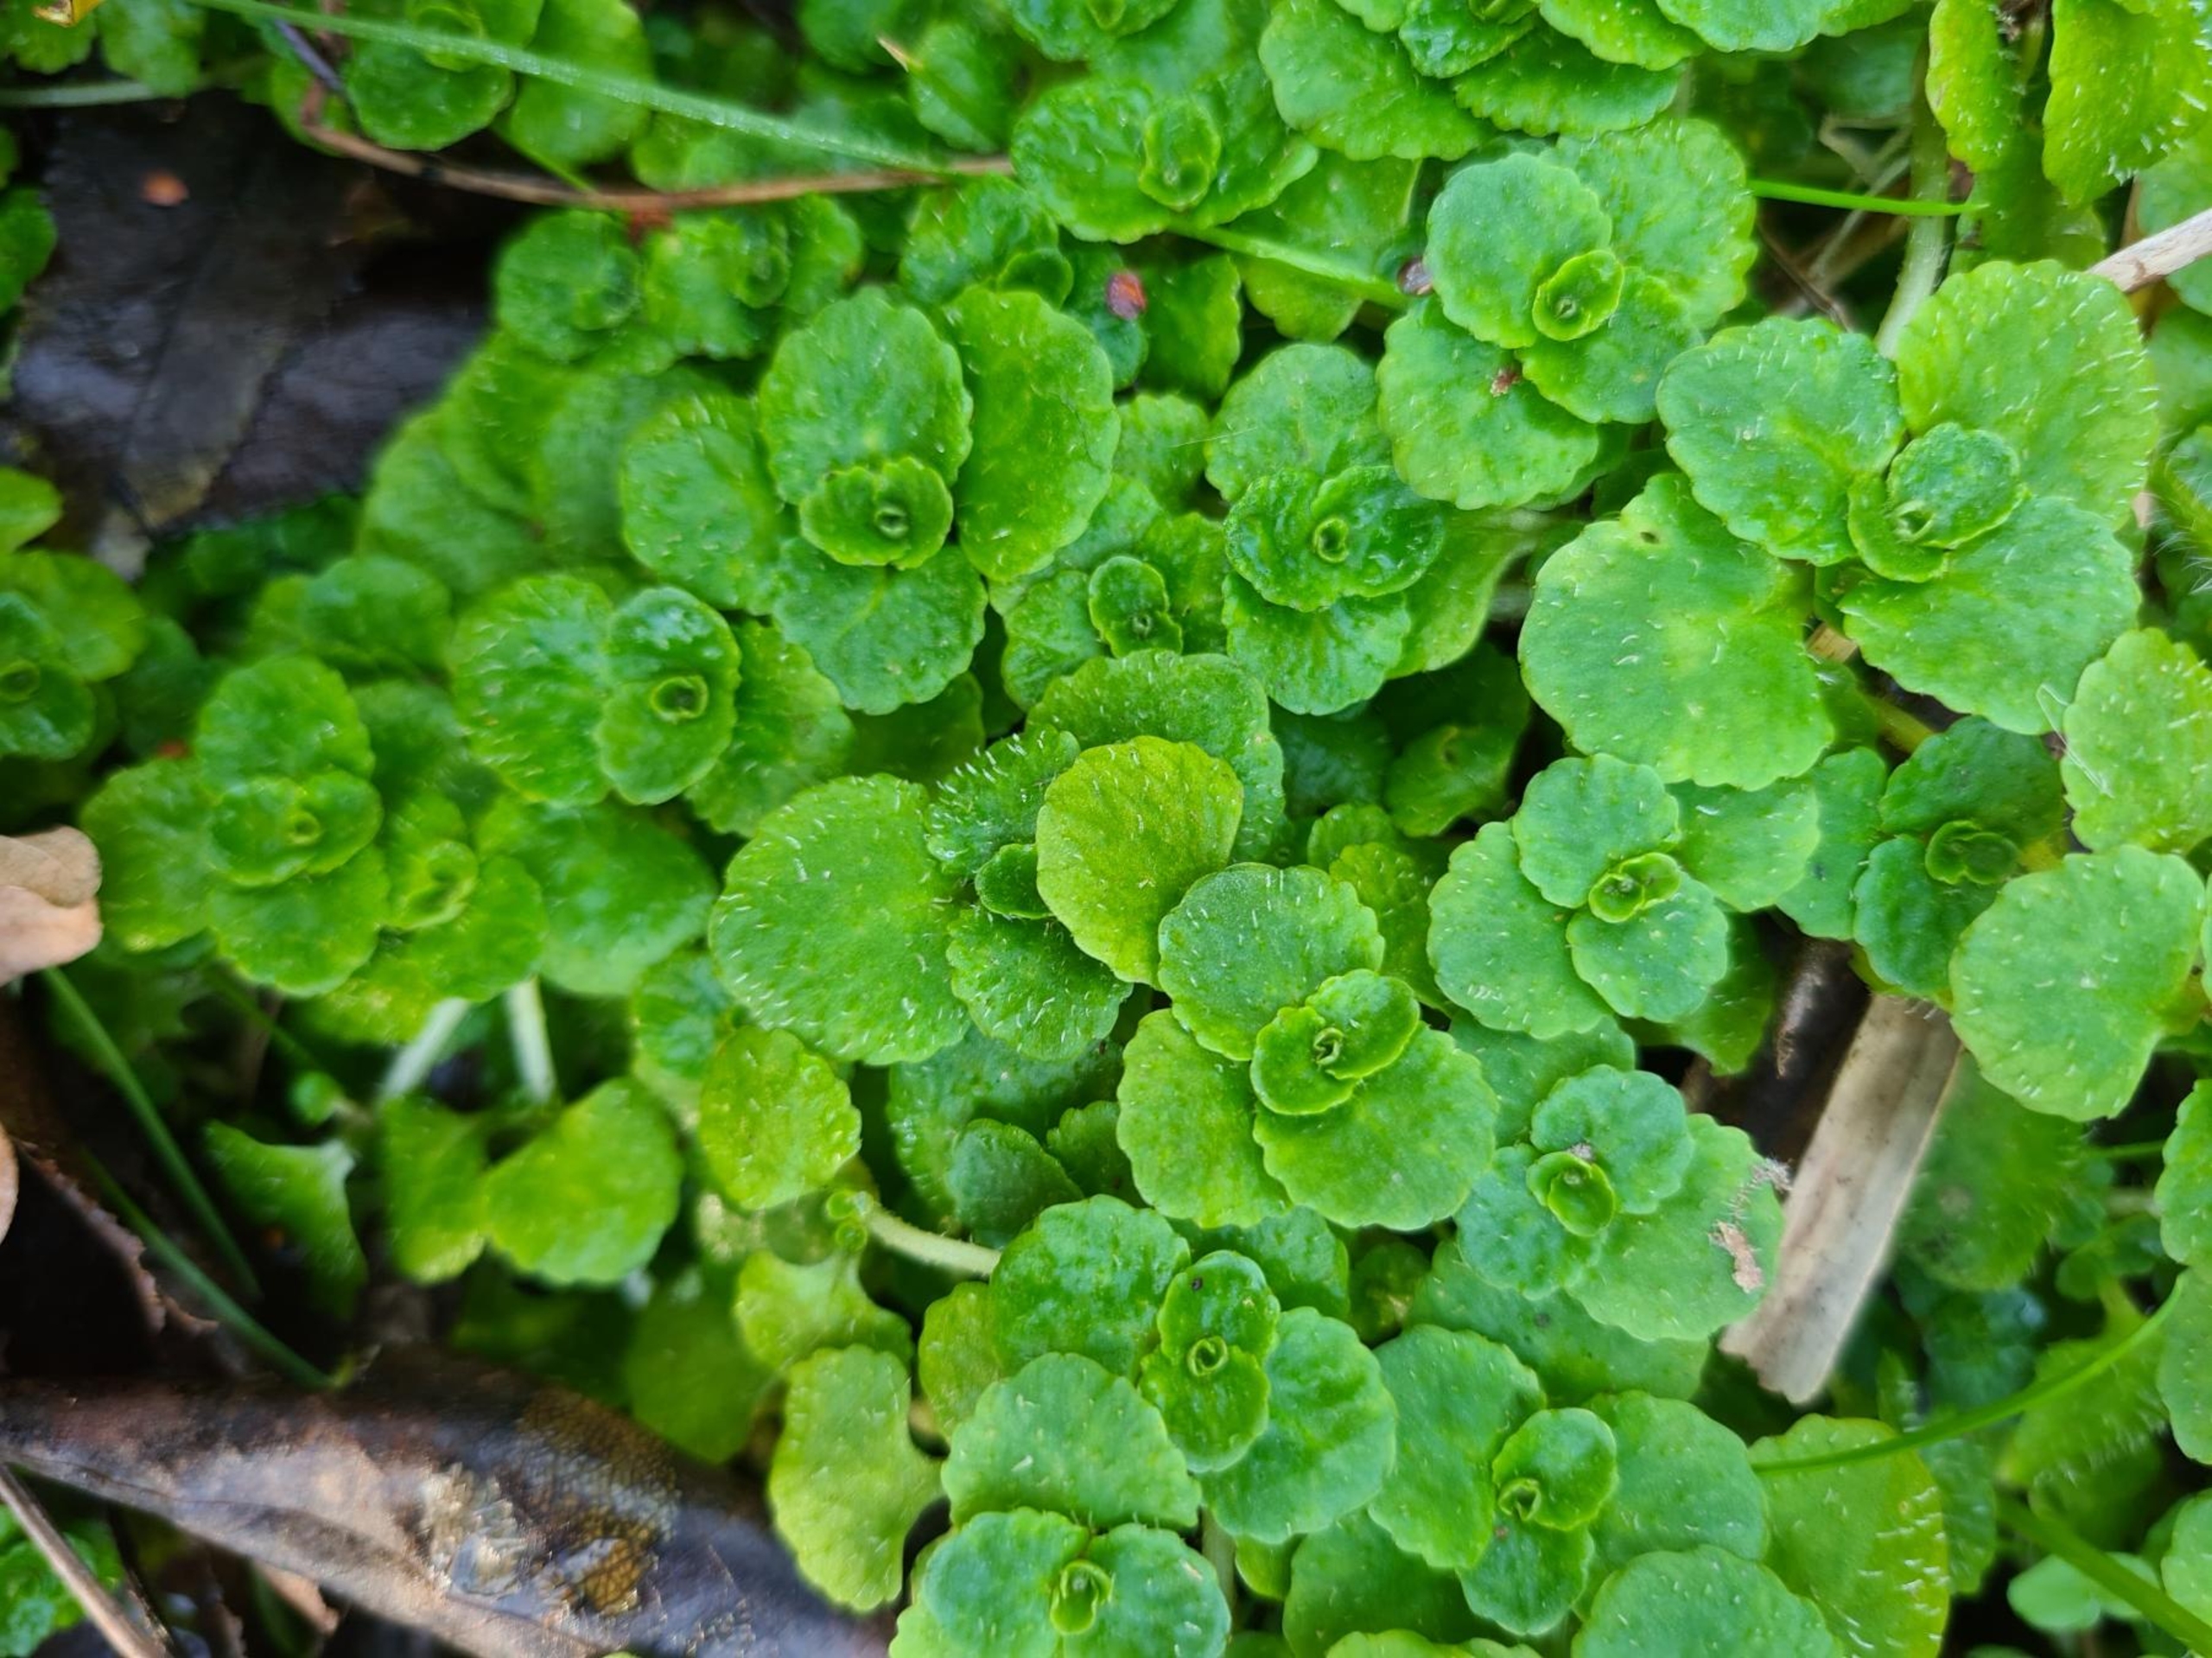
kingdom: Plantae
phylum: Tracheophyta
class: Magnoliopsida
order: Saxifragales
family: Saxifragaceae
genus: Chrysosplenium
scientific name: Chrysosplenium oppositifolium
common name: Småbladet milturt
